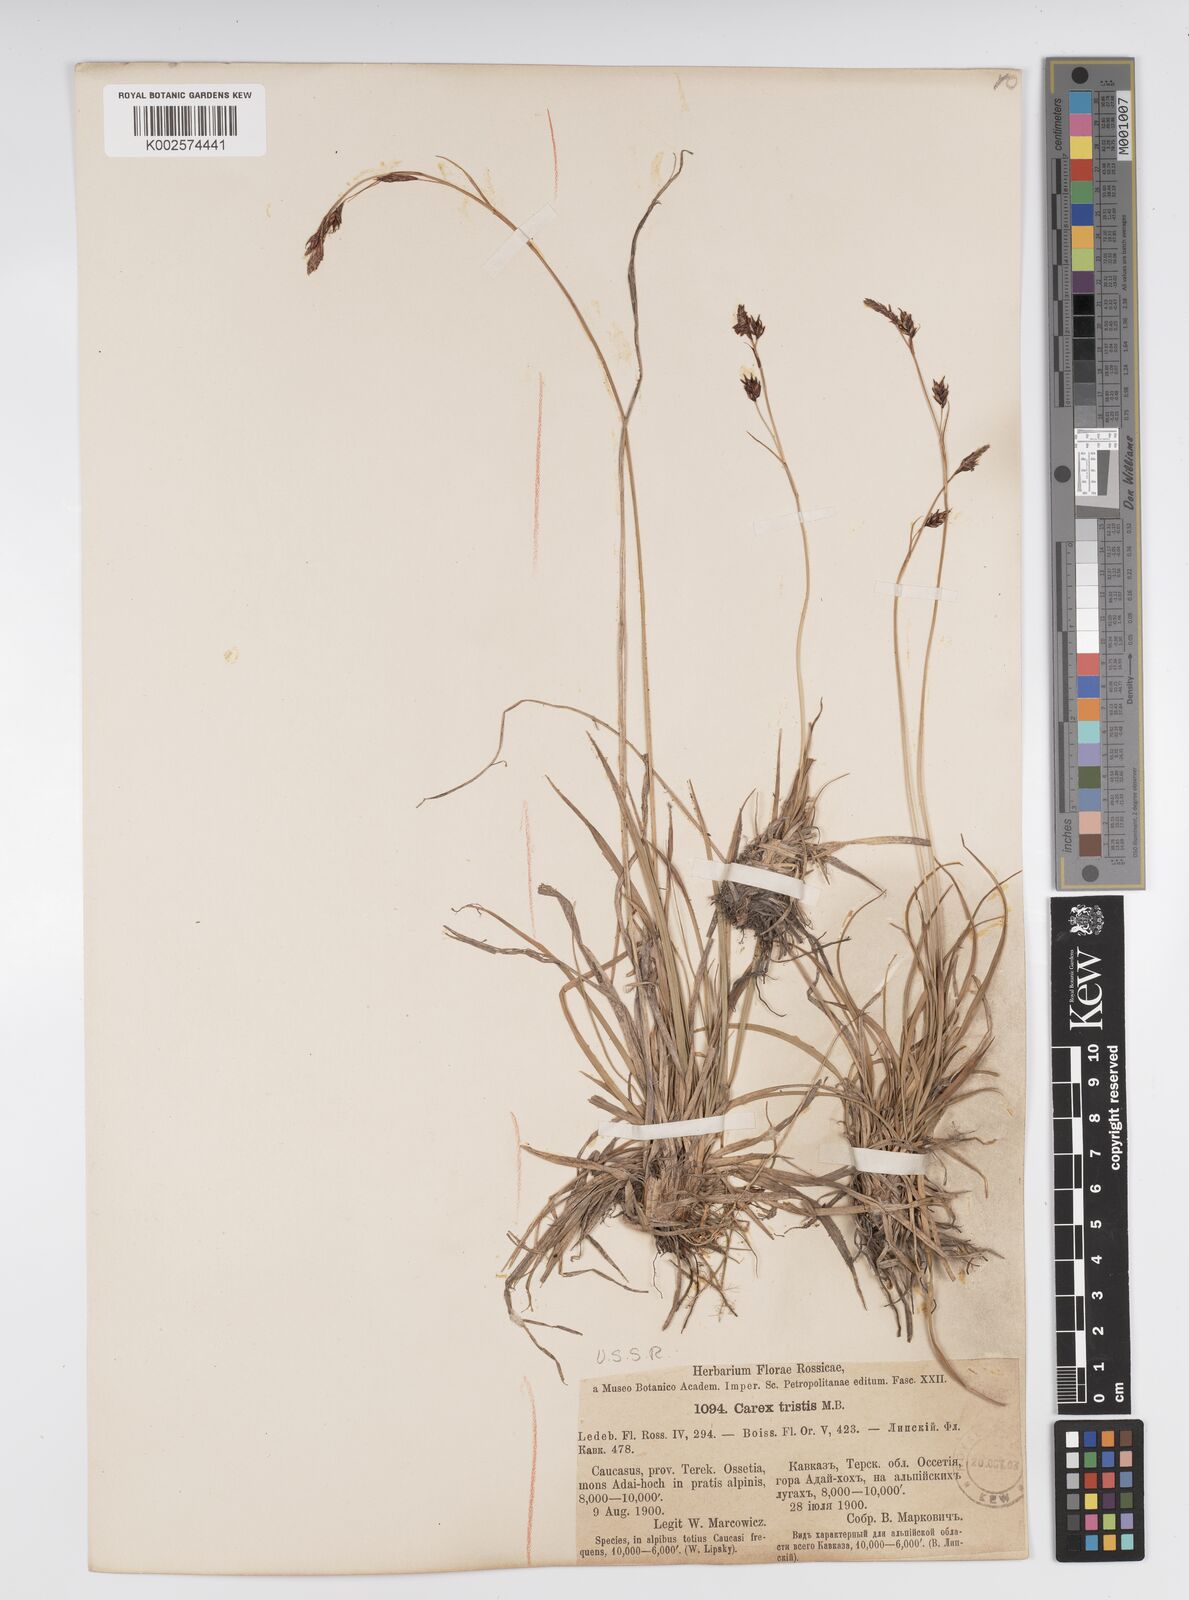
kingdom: Plantae
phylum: Tracheophyta
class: Liliopsida
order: Poales
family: Cyperaceae
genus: Carex
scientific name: Carex sempervirens
